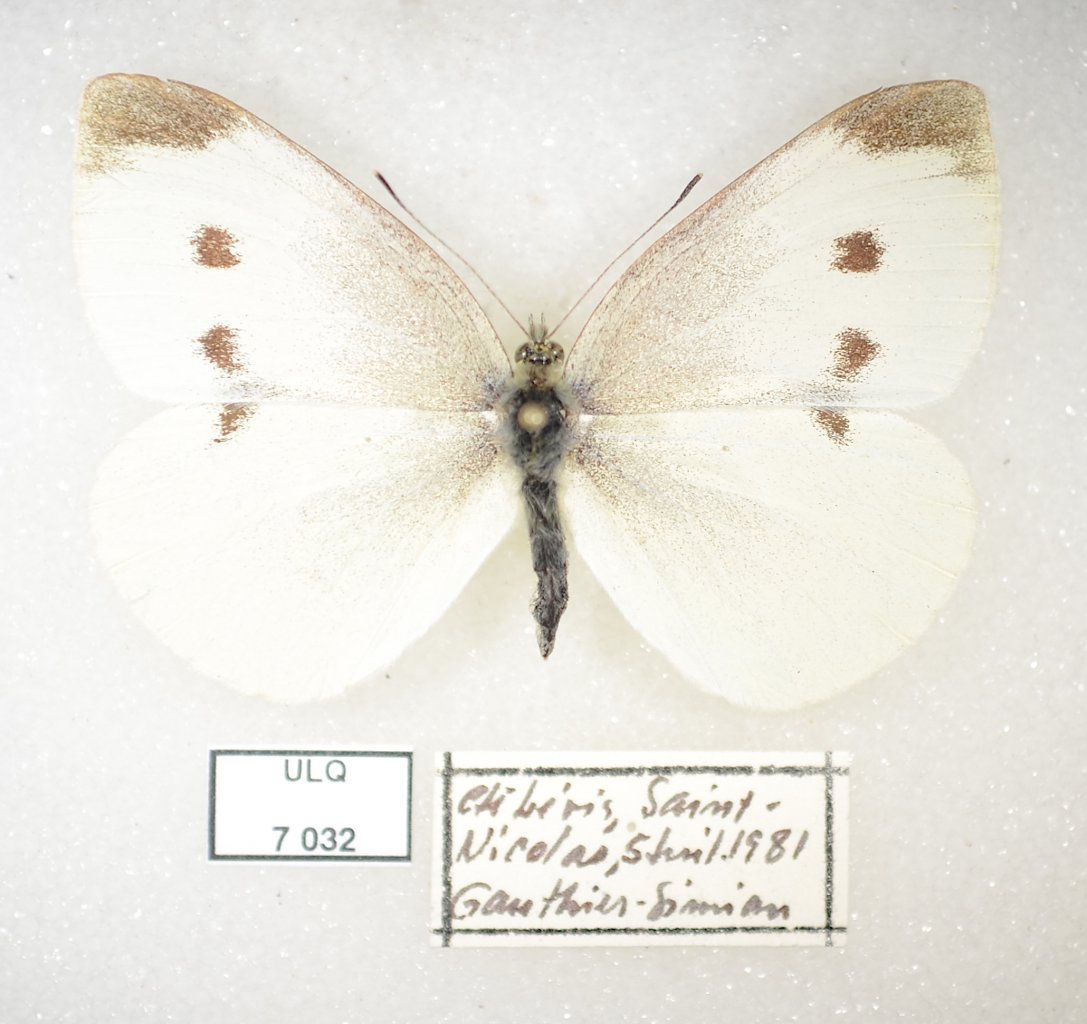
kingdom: Animalia
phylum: Arthropoda
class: Insecta
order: Lepidoptera
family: Pieridae
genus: Pieris
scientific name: Pieris rapae
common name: Cabbage White
